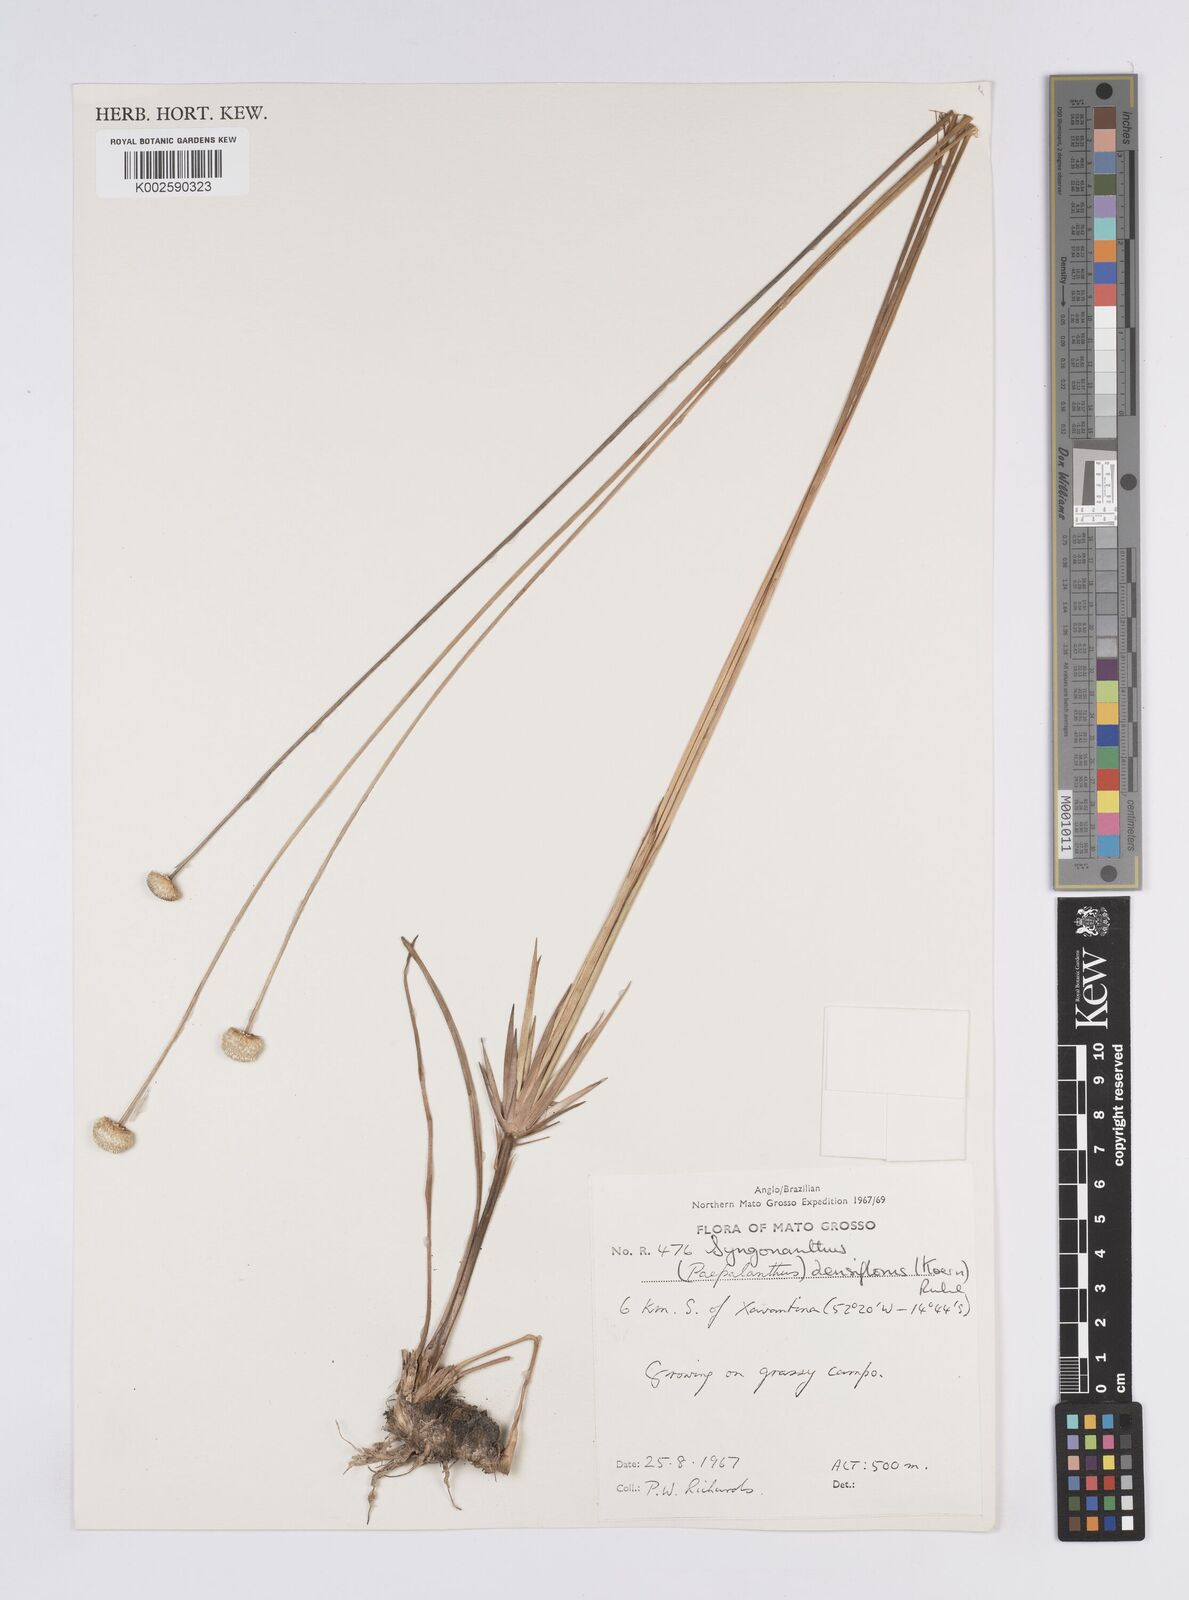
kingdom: Plantae
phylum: Tracheophyta
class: Liliopsida
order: Poales
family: Eriocaulaceae
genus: Syngonanthus
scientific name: Syngonanthus densiflorus
